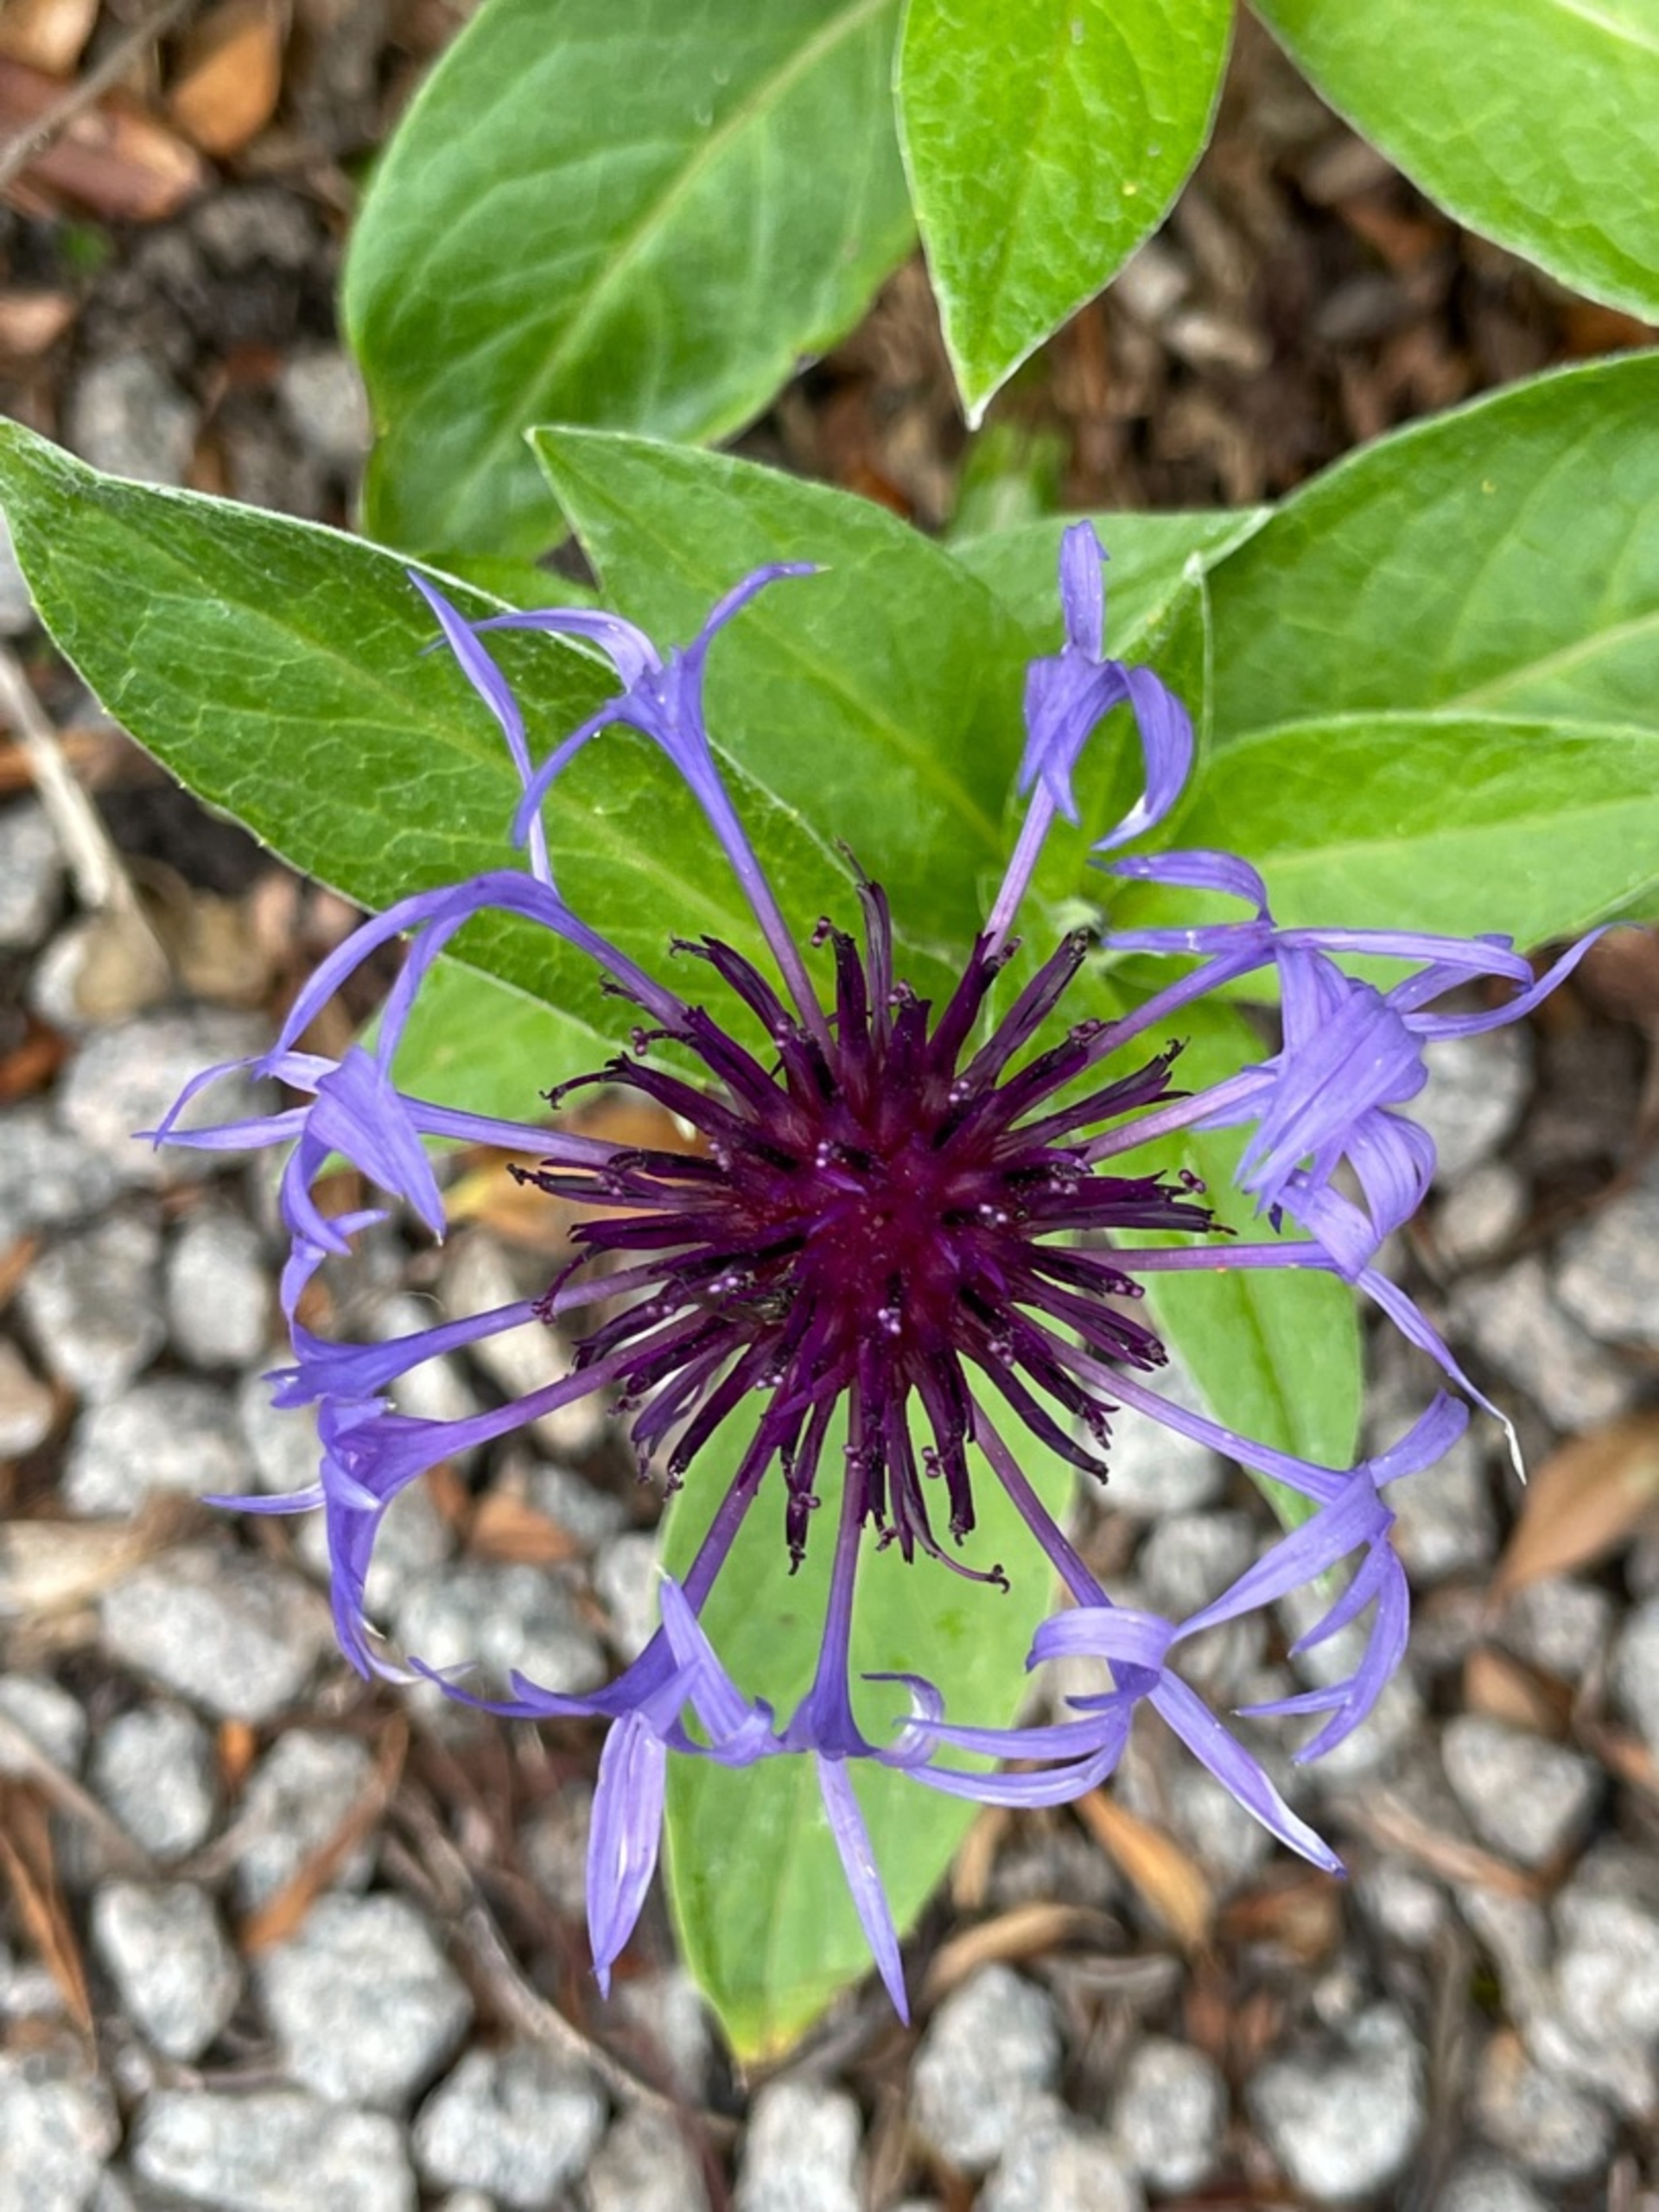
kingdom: Plantae
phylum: Tracheophyta
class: Magnoliopsida
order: Asterales
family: Asteraceae
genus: Centaurea
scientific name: Centaurea montana
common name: Bjerg-knopurt
